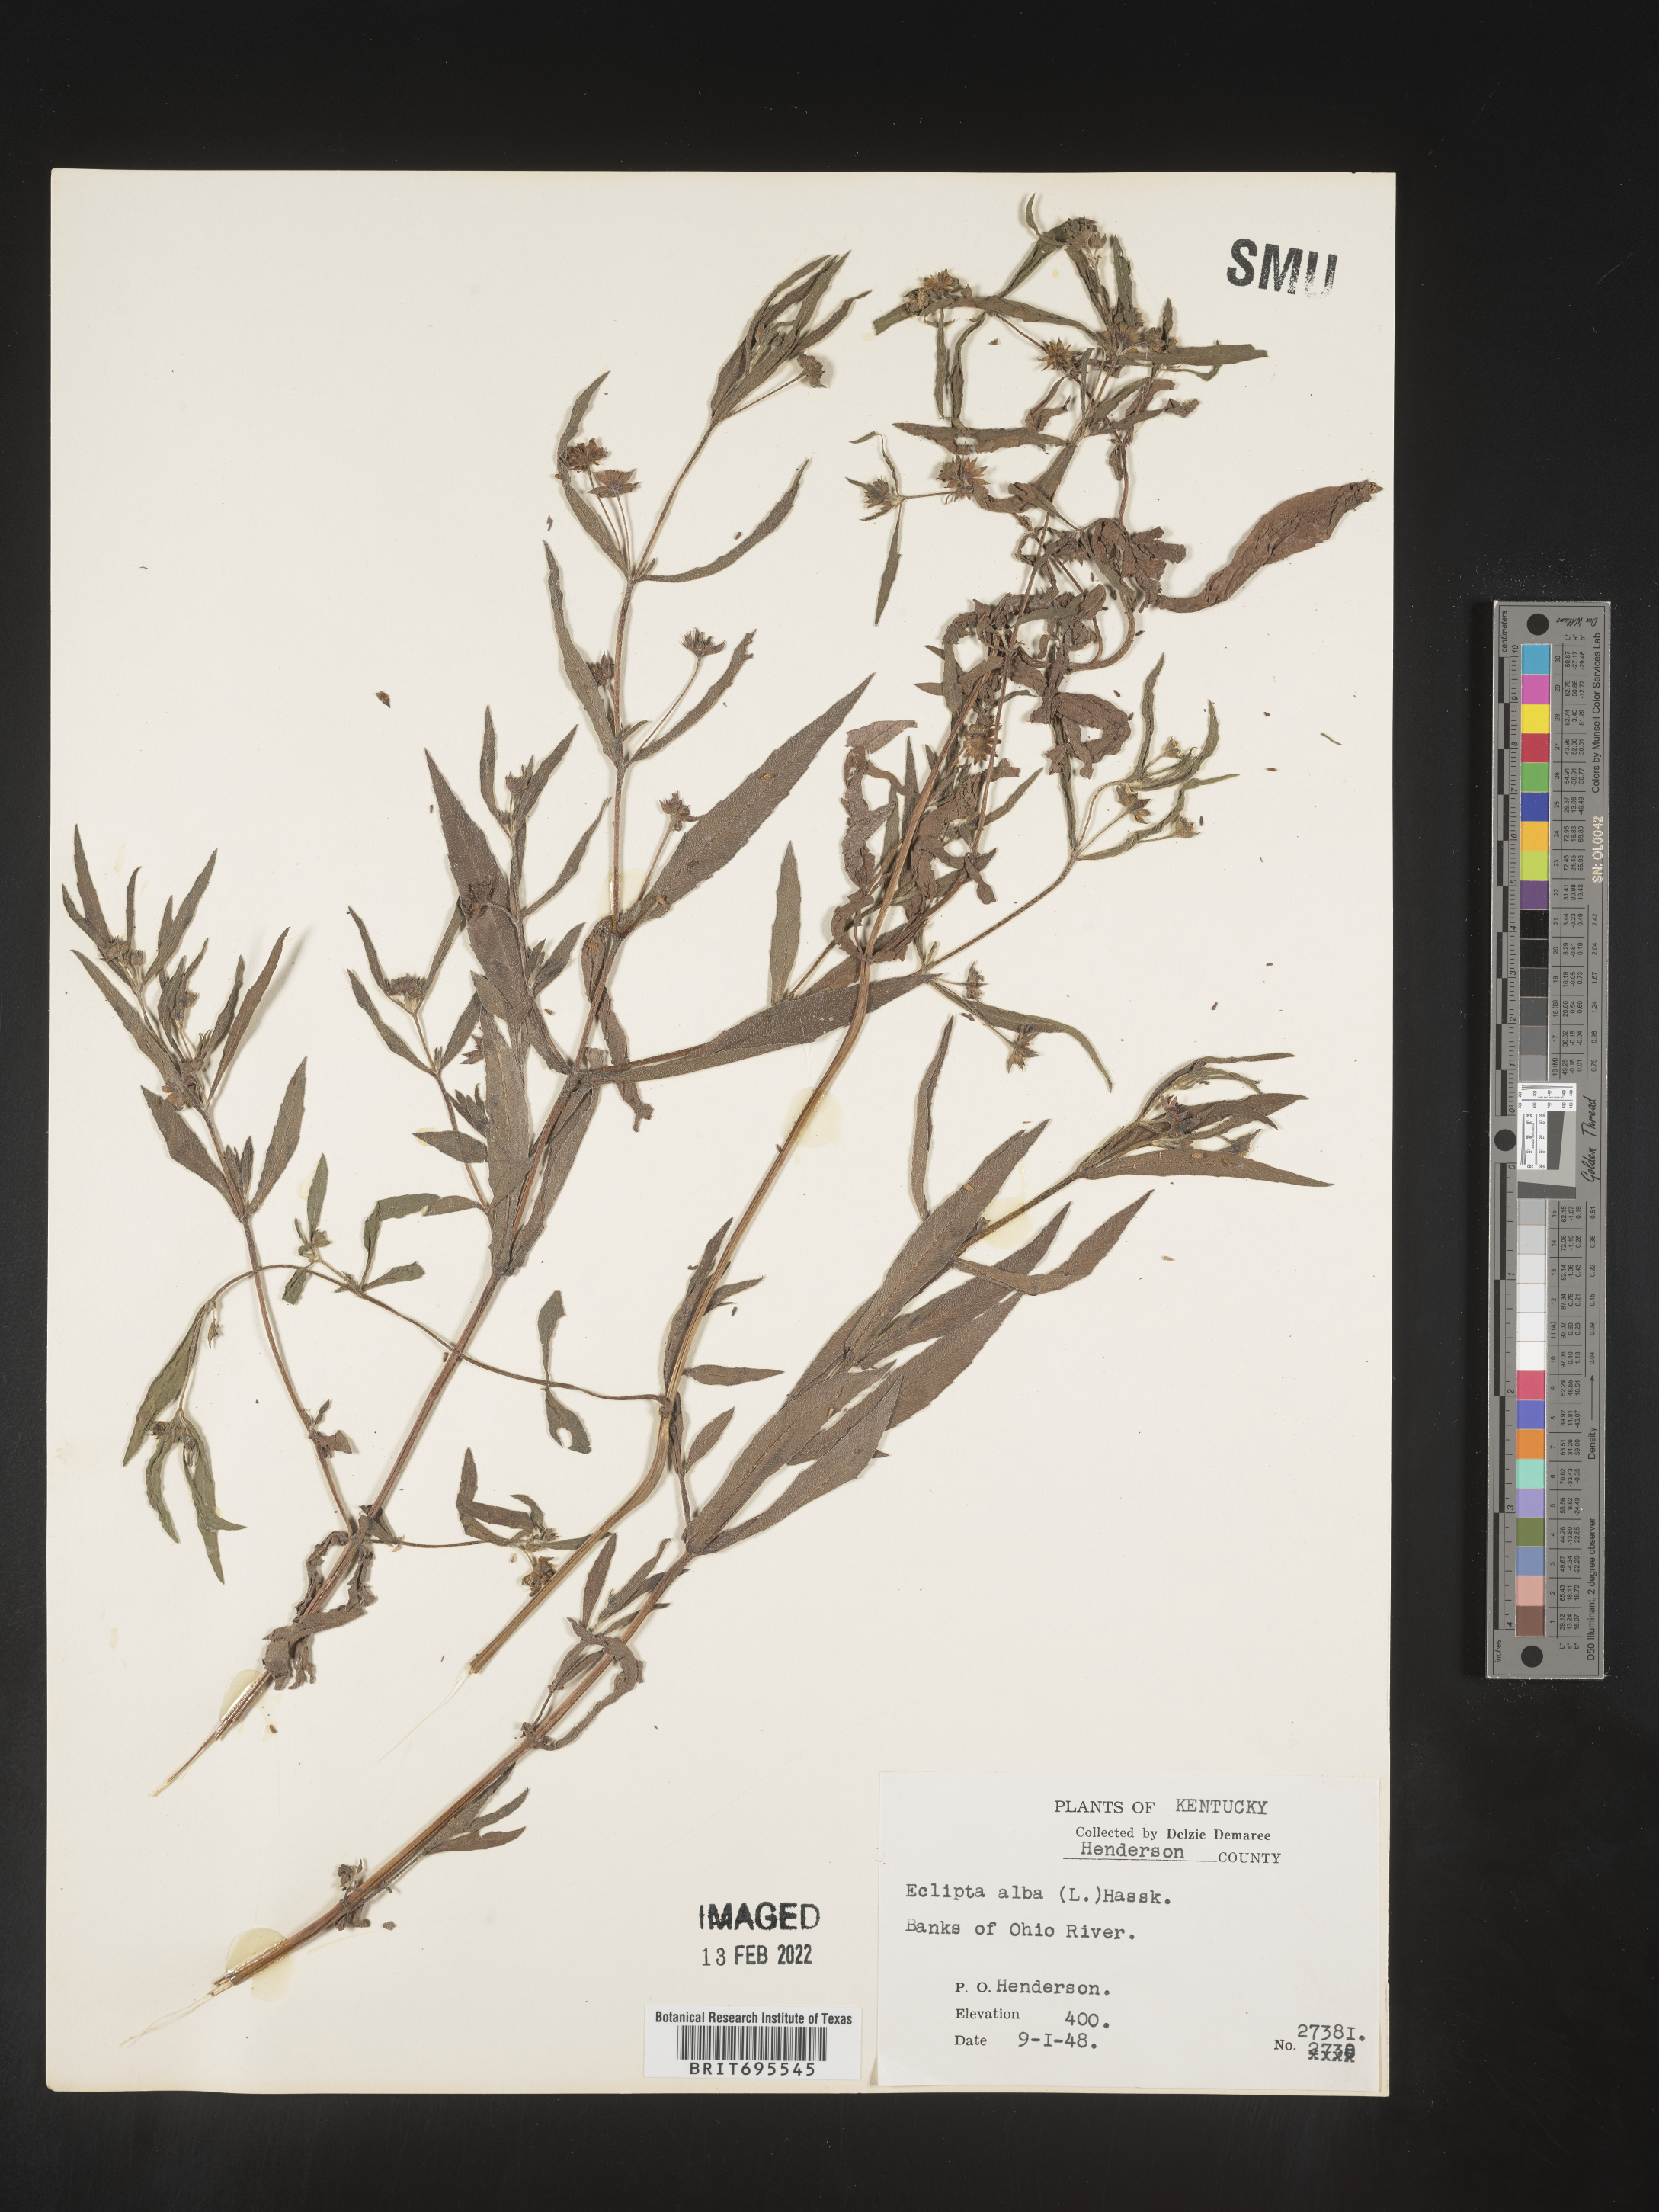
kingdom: Plantae
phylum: Tracheophyta
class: Magnoliopsida
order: Asterales
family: Asteraceae
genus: Eclipta
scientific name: Eclipta alba
